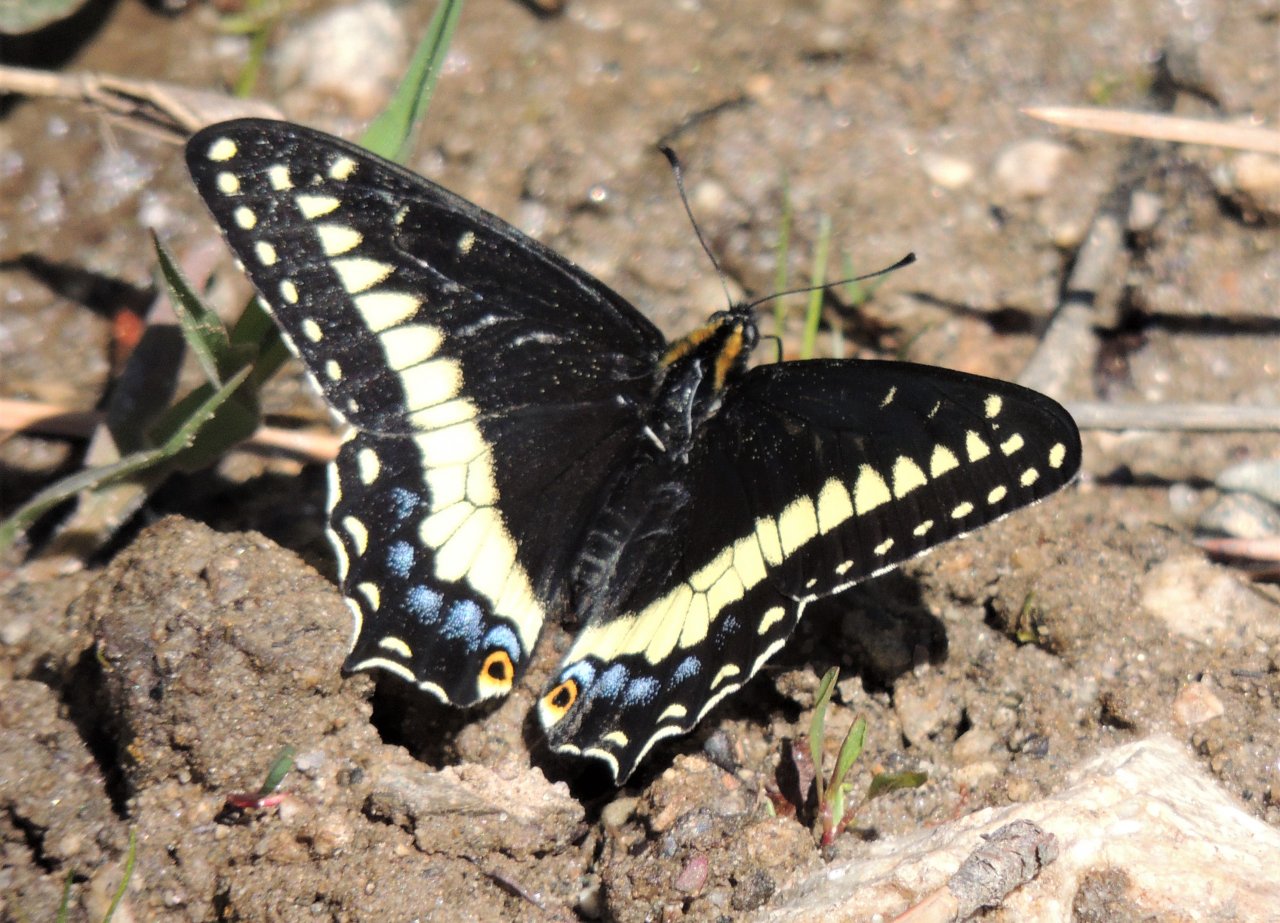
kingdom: Animalia
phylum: Arthropoda
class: Insecta
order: Lepidoptera
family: Papilionidae
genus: Papilio
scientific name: Papilio indra
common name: Indra Swallowtail
